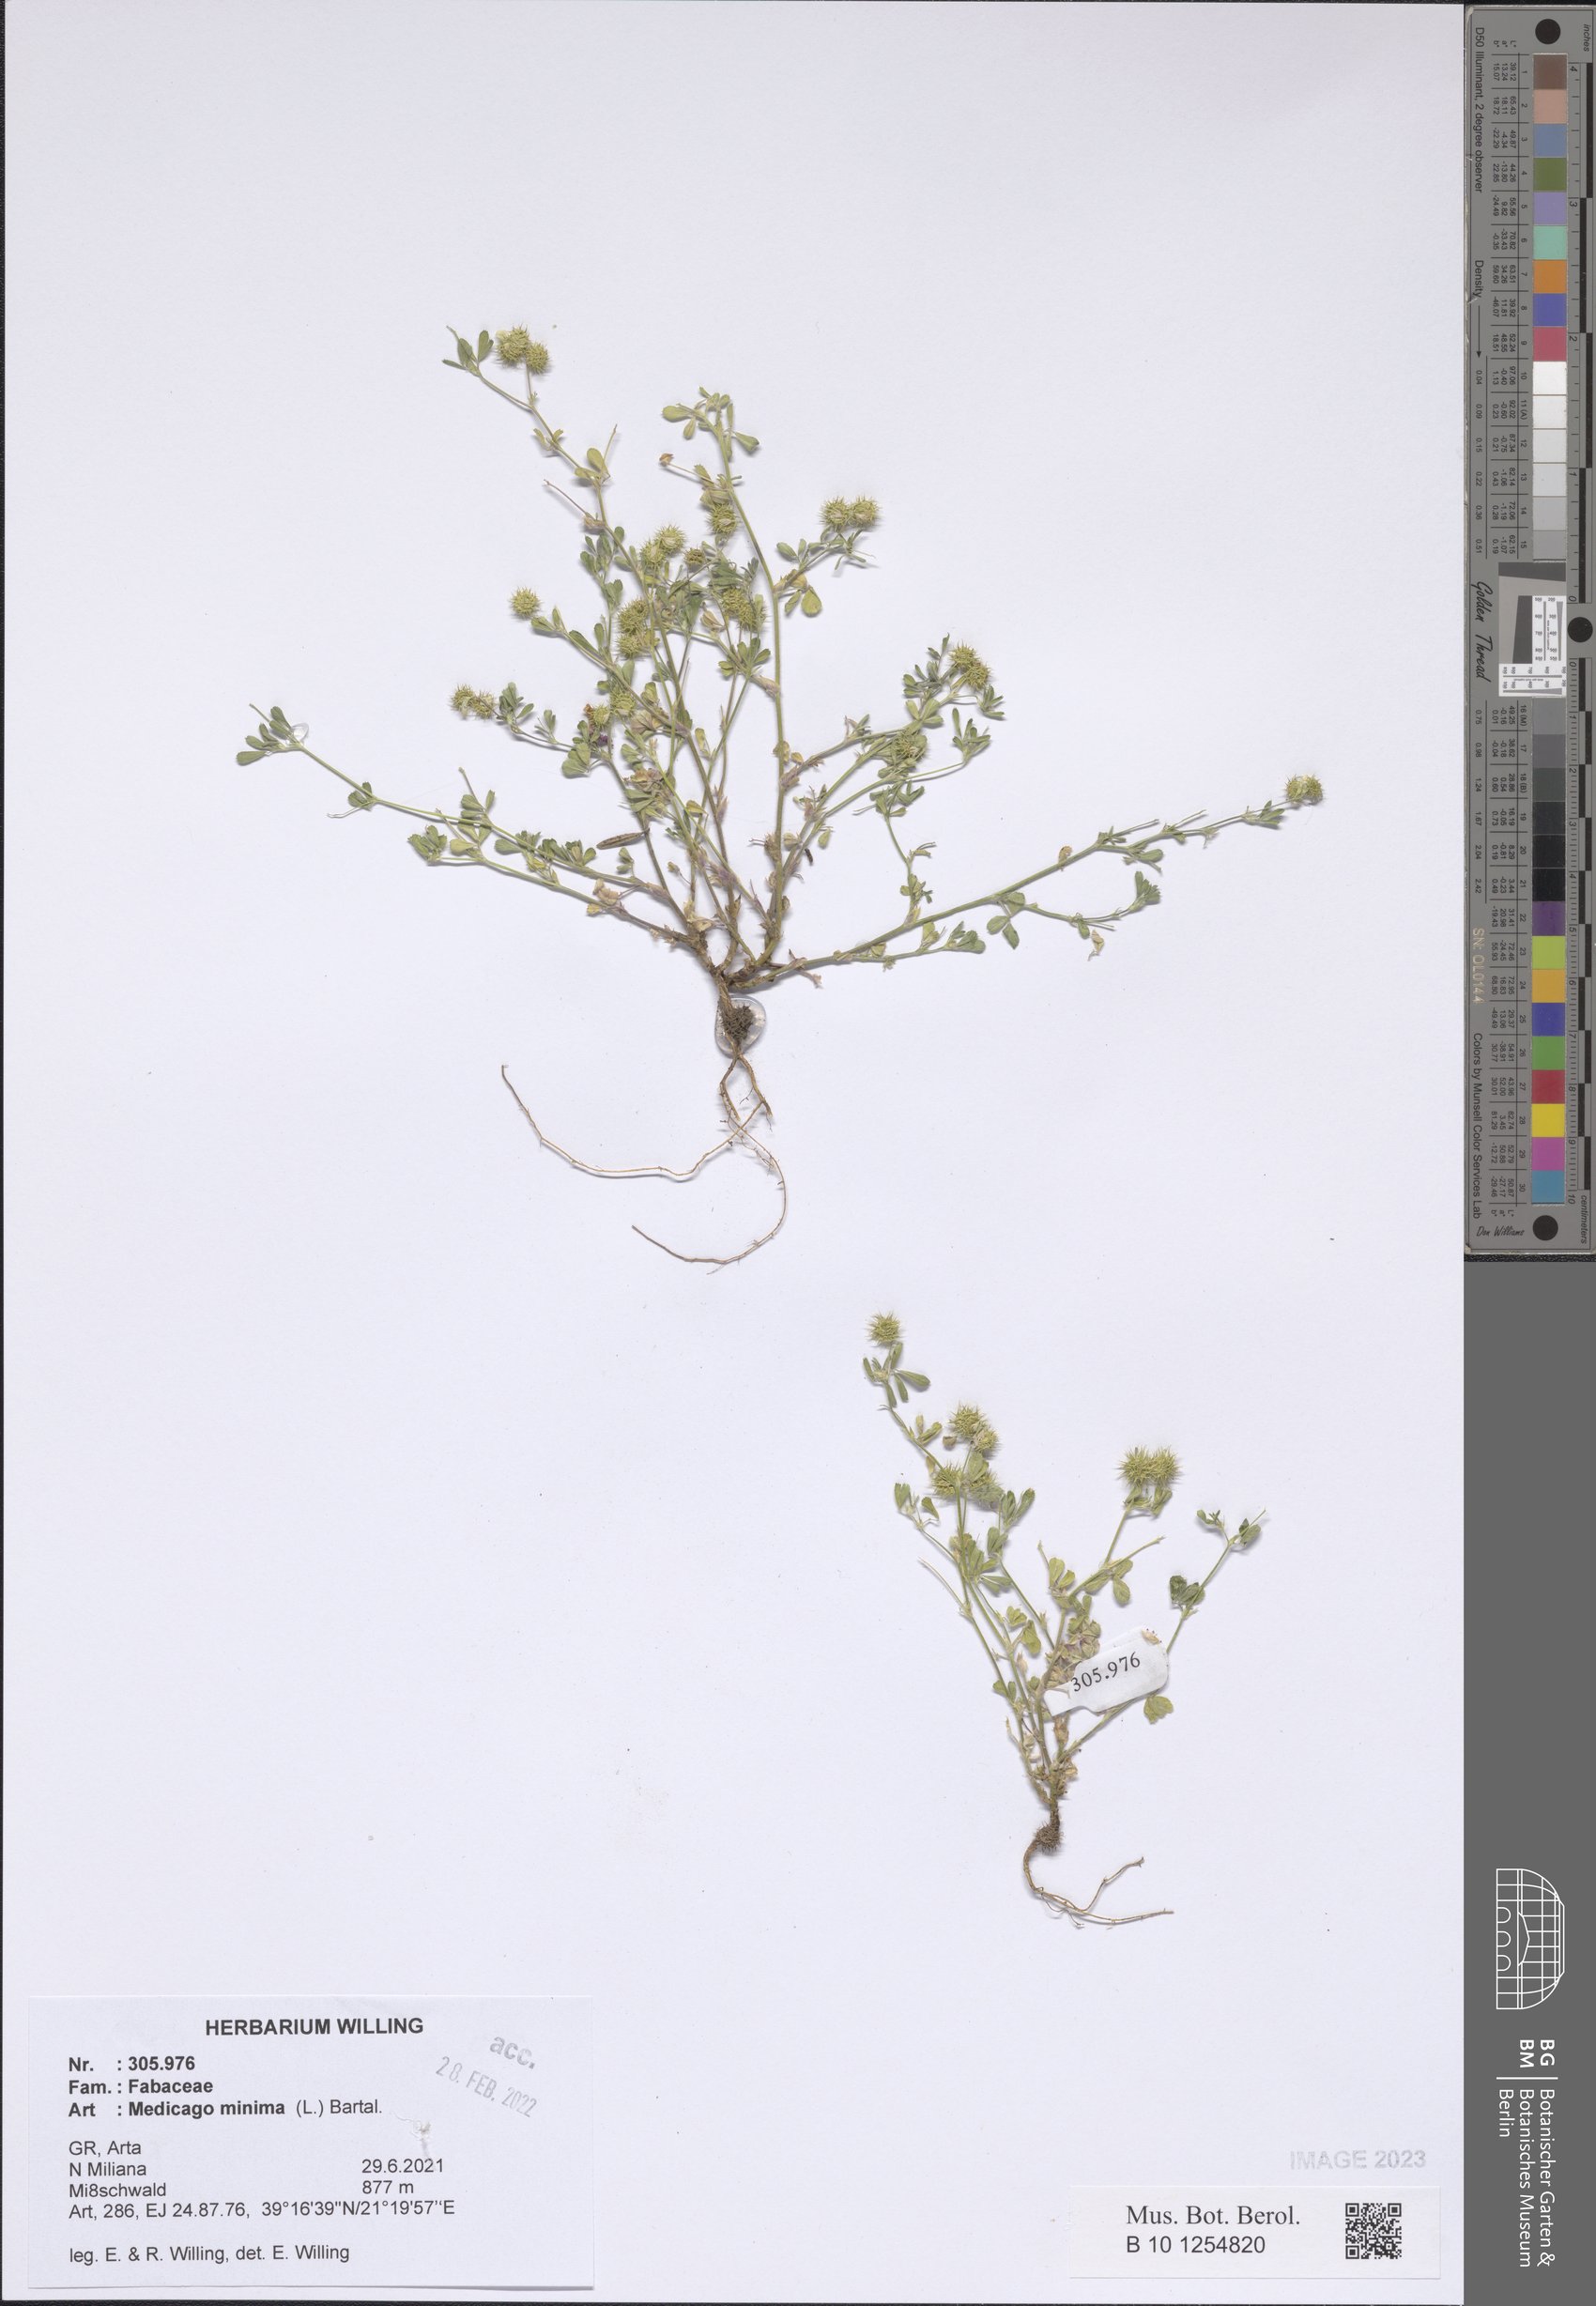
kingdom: Plantae
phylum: Tracheophyta
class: Magnoliopsida
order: Fabales
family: Fabaceae
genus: Medicago
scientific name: Medicago minima
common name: Little bur-clover
